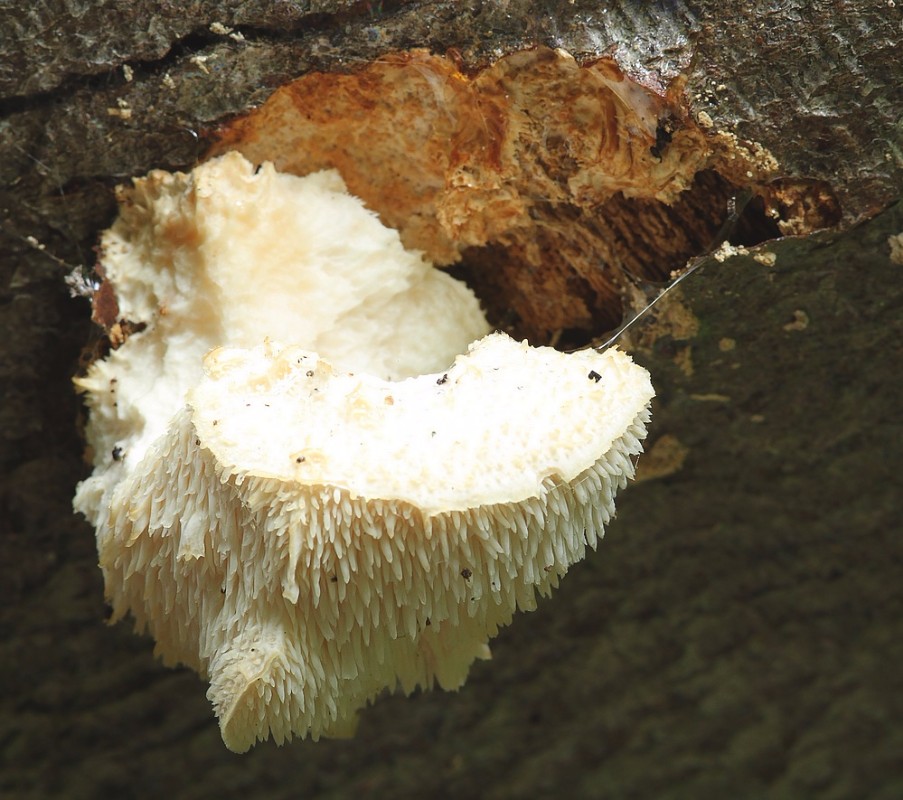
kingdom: Fungi
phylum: Basidiomycota
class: Agaricomycetes
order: Russulales
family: Hericiaceae
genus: Hericium
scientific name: Hericium cirrhatum
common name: børstepigsvamp
